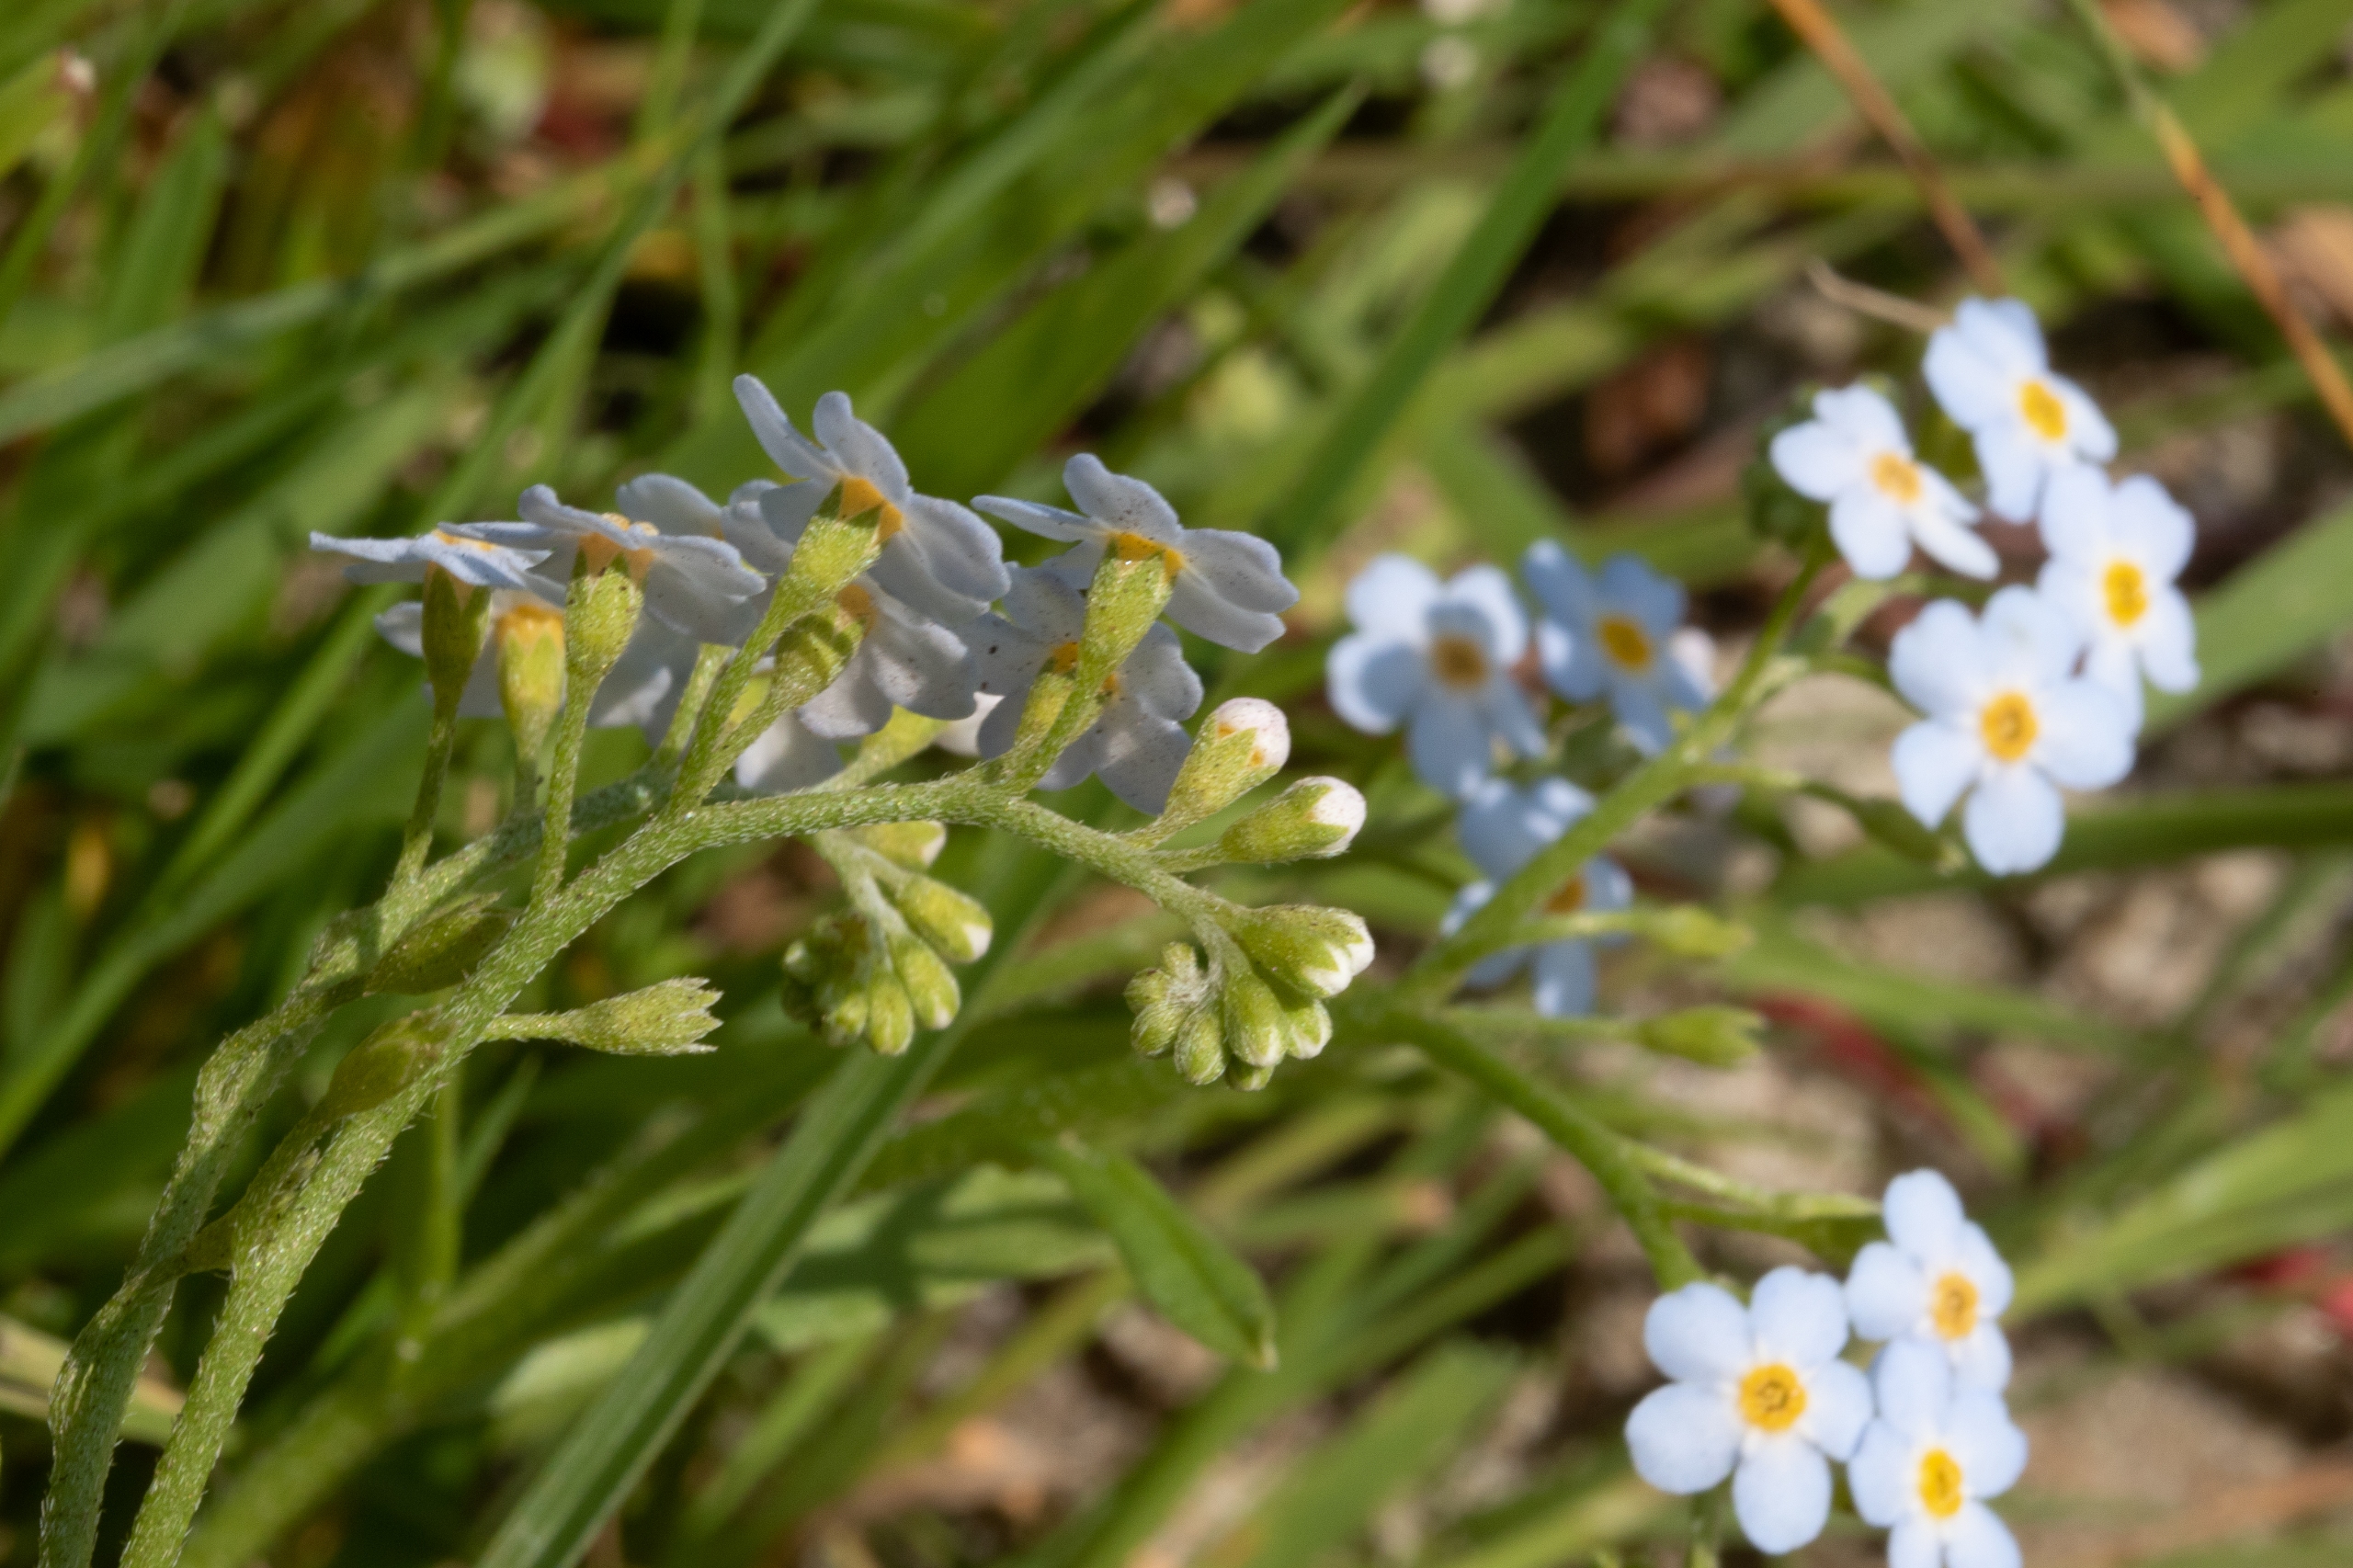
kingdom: Plantae
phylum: Tracheophyta
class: Magnoliopsida
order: Boraginales
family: Boraginaceae
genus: Myosotis
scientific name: Myosotis scorpioides
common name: Eng-forglemmigej
